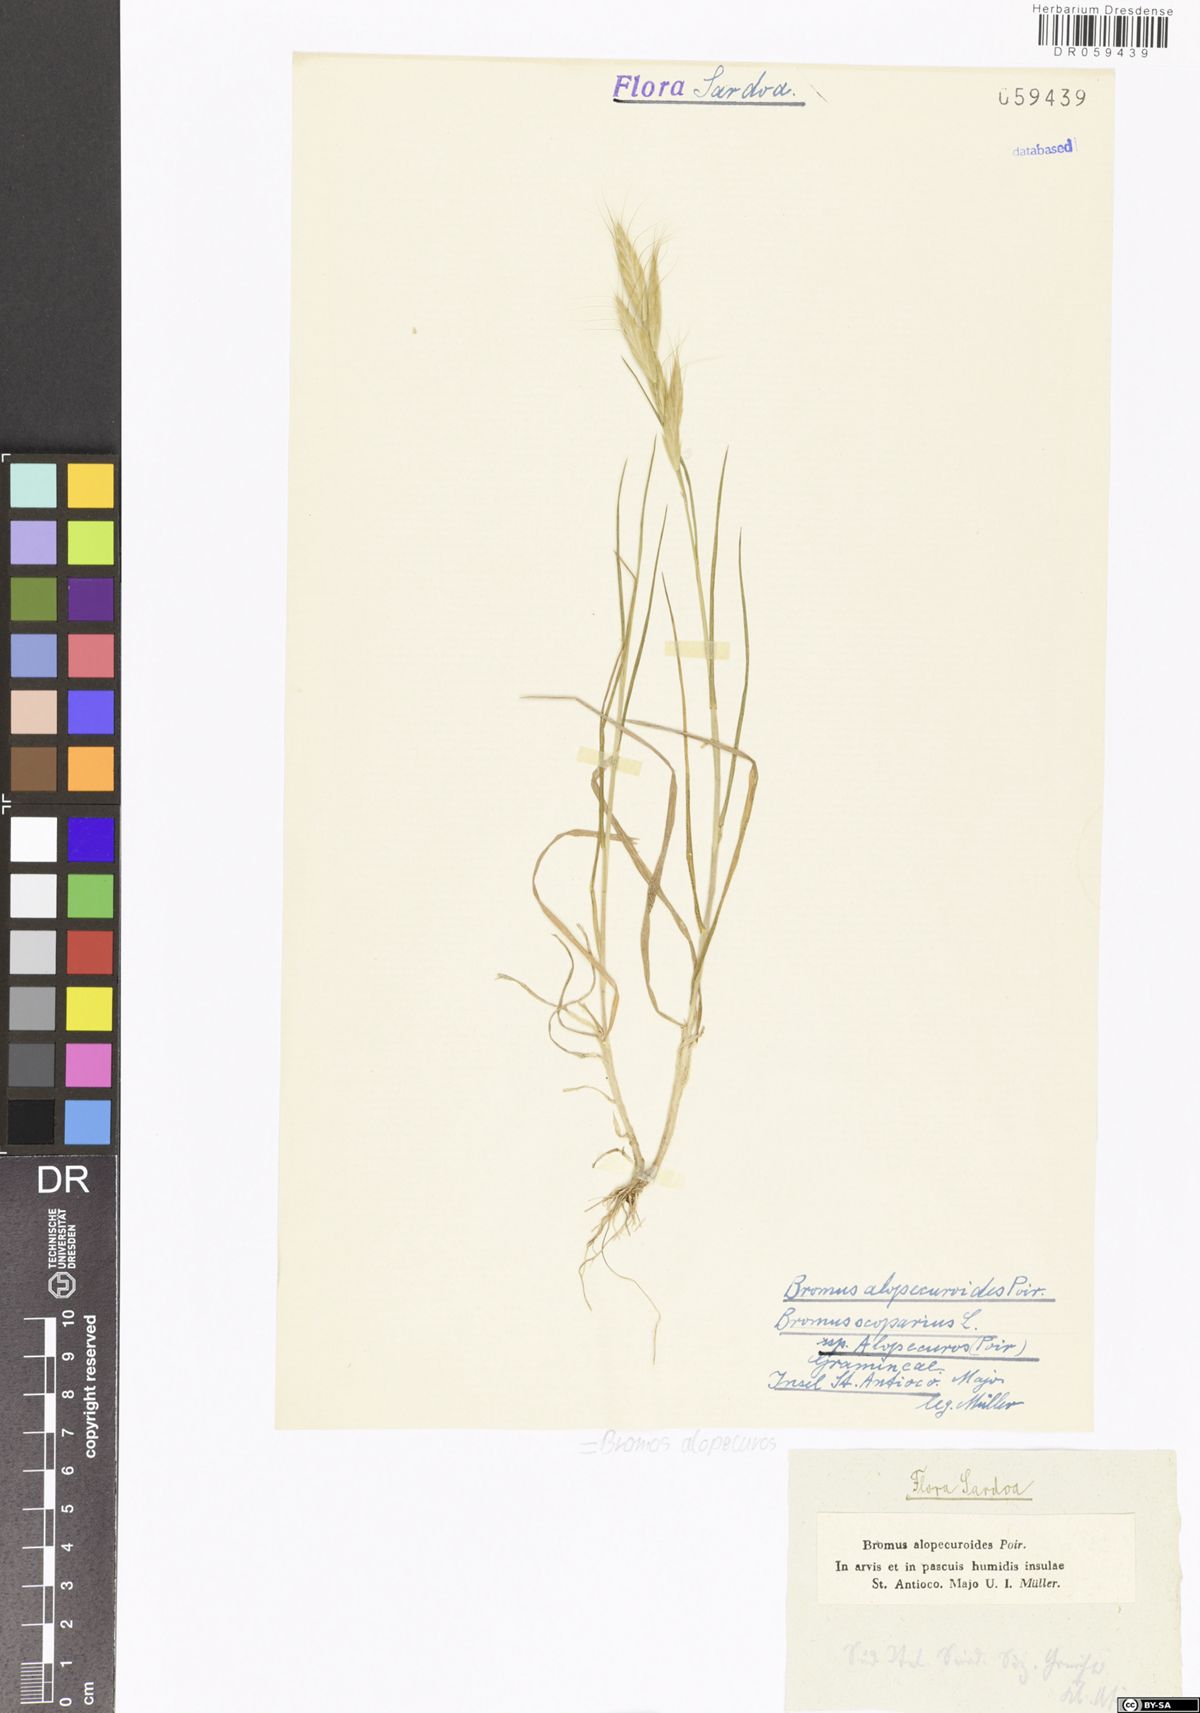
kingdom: Plantae
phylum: Tracheophyta
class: Liliopsida
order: Poales
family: Poaceae
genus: Bromus
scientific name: Bromus alopecuros
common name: Weedy brome
